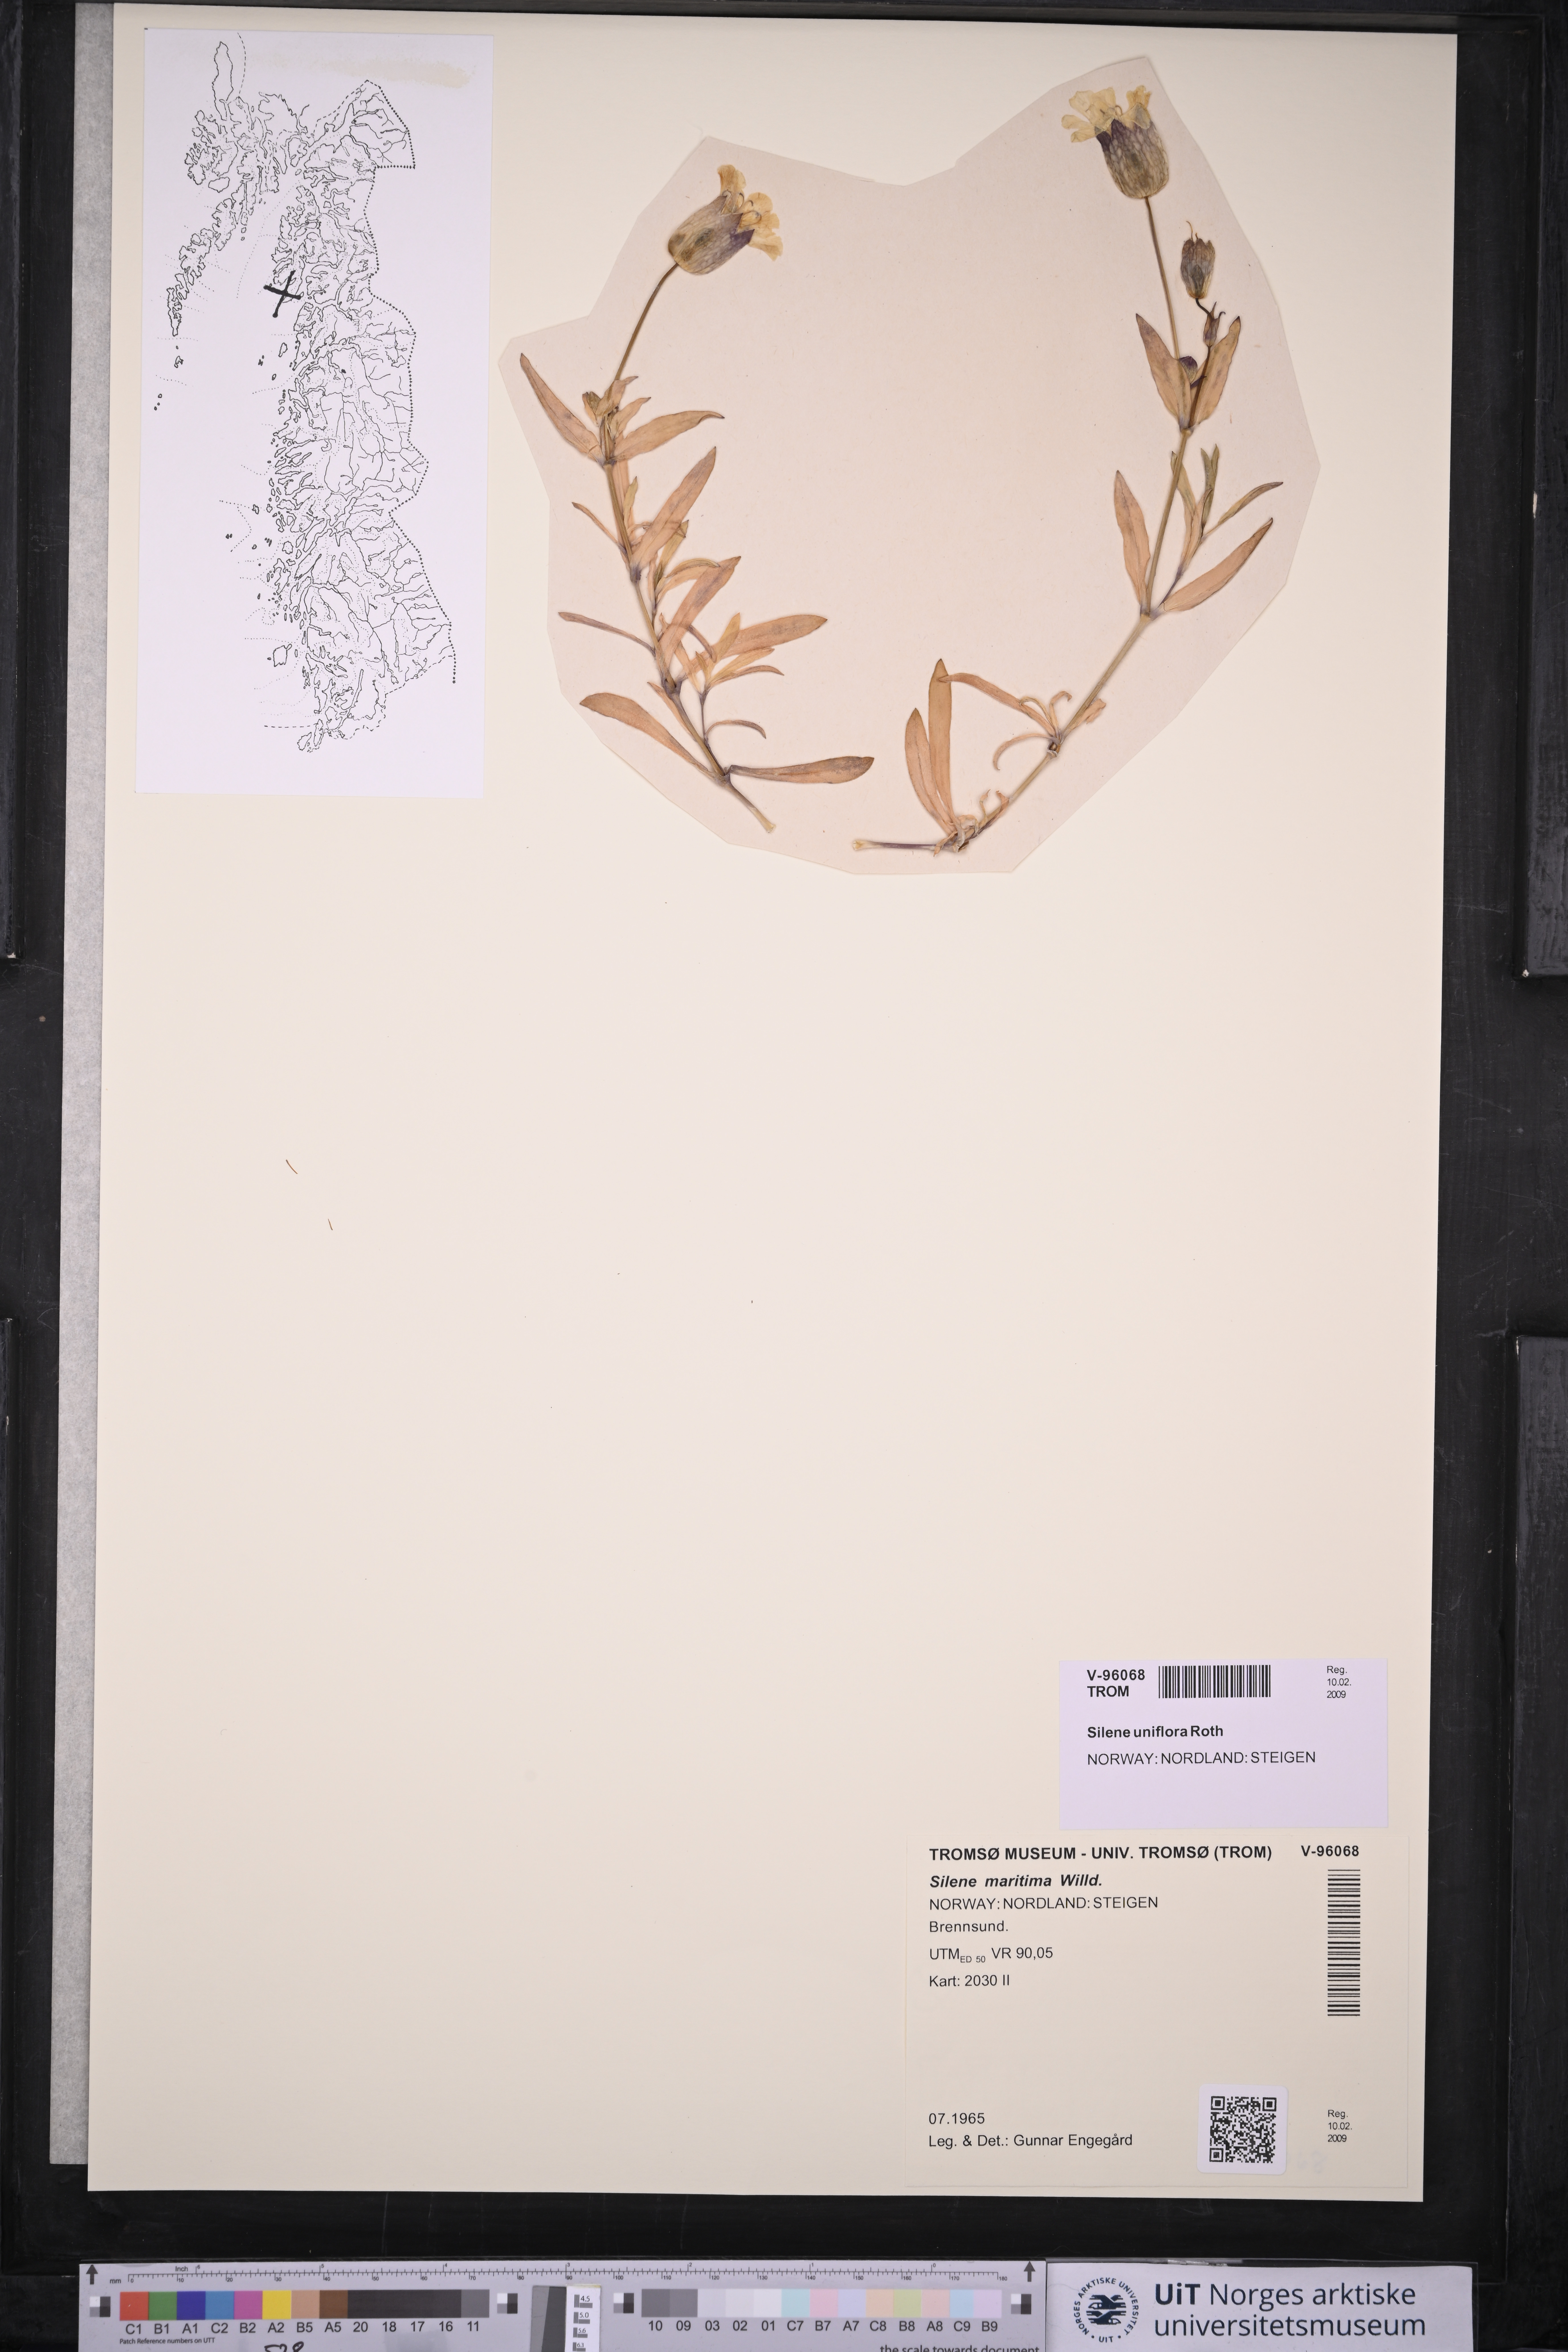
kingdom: Plantae
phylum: Tracheophyta
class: Magnoliopsida
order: Caryophyllales
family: Caryophyllaceae
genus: Silene
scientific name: Silene uniflora
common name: Sea campion
